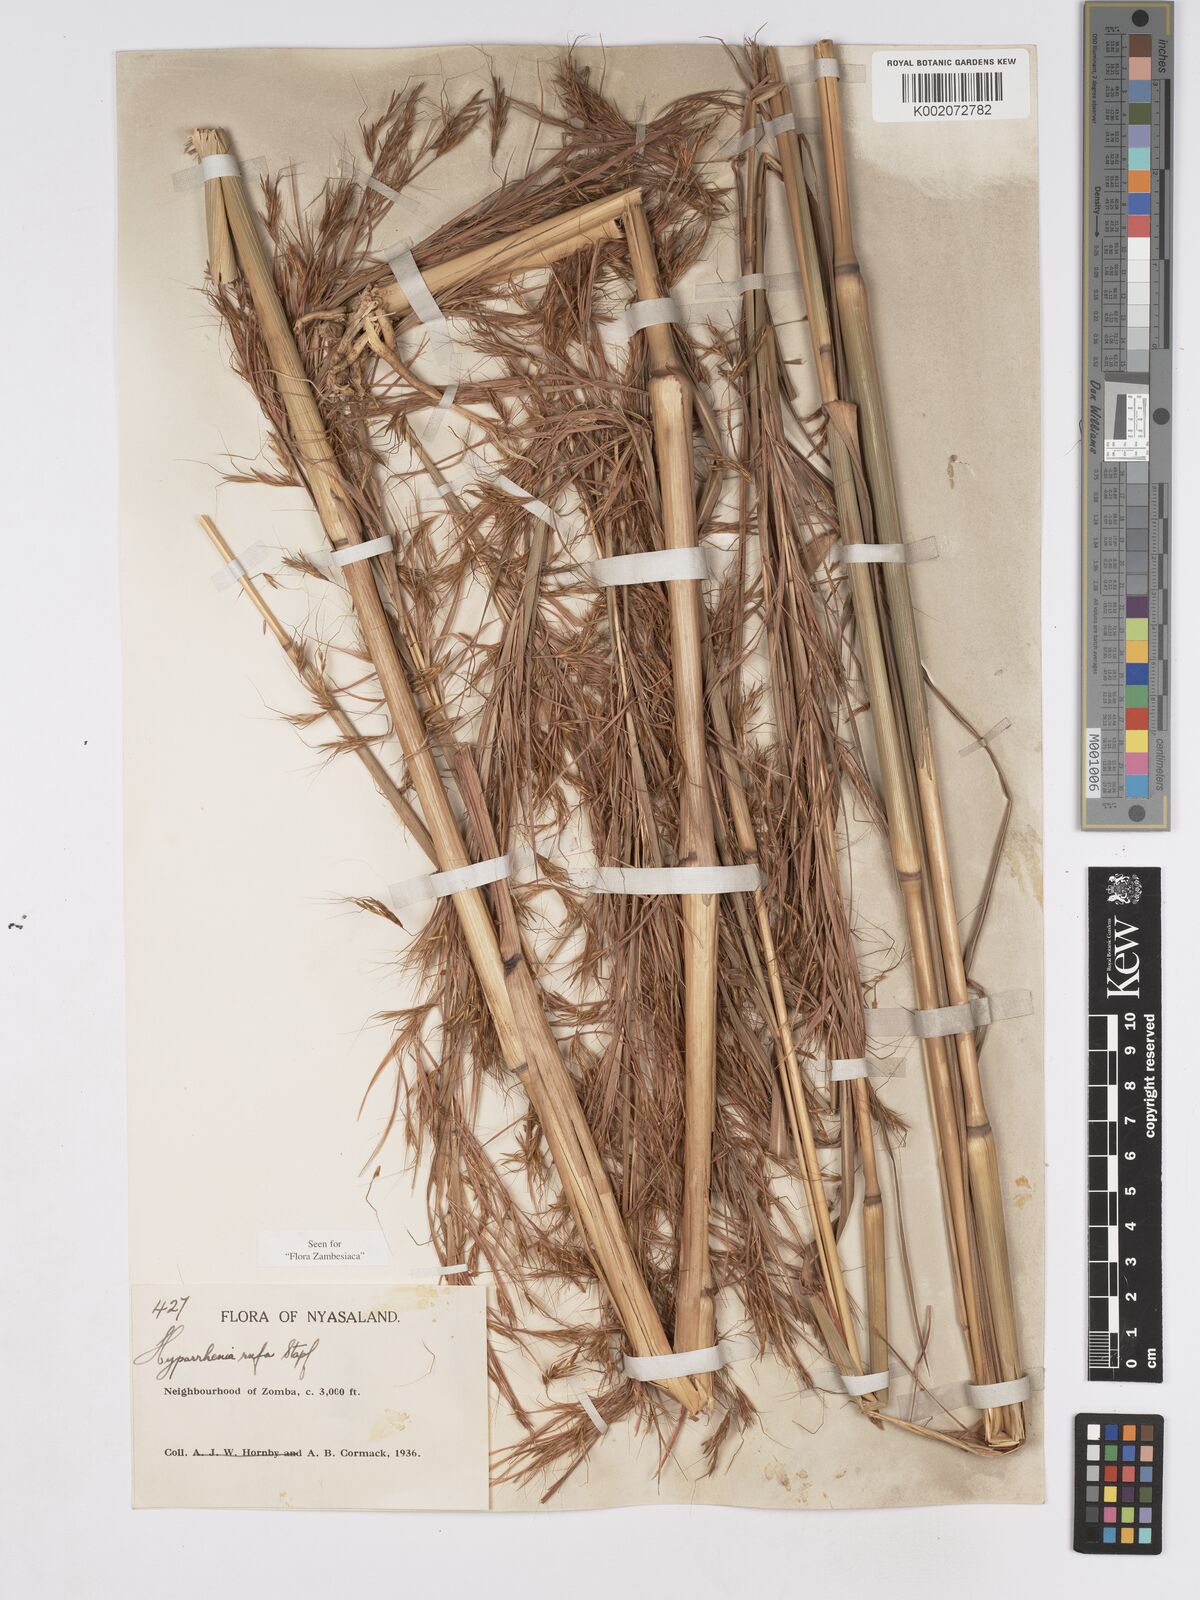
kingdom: Plantae
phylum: Tracheophyta
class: Liliopsida
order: Poales
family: Poaceae
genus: Hyparrhenia
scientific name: Hyparrhenia rufa
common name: Jaraguagrass
